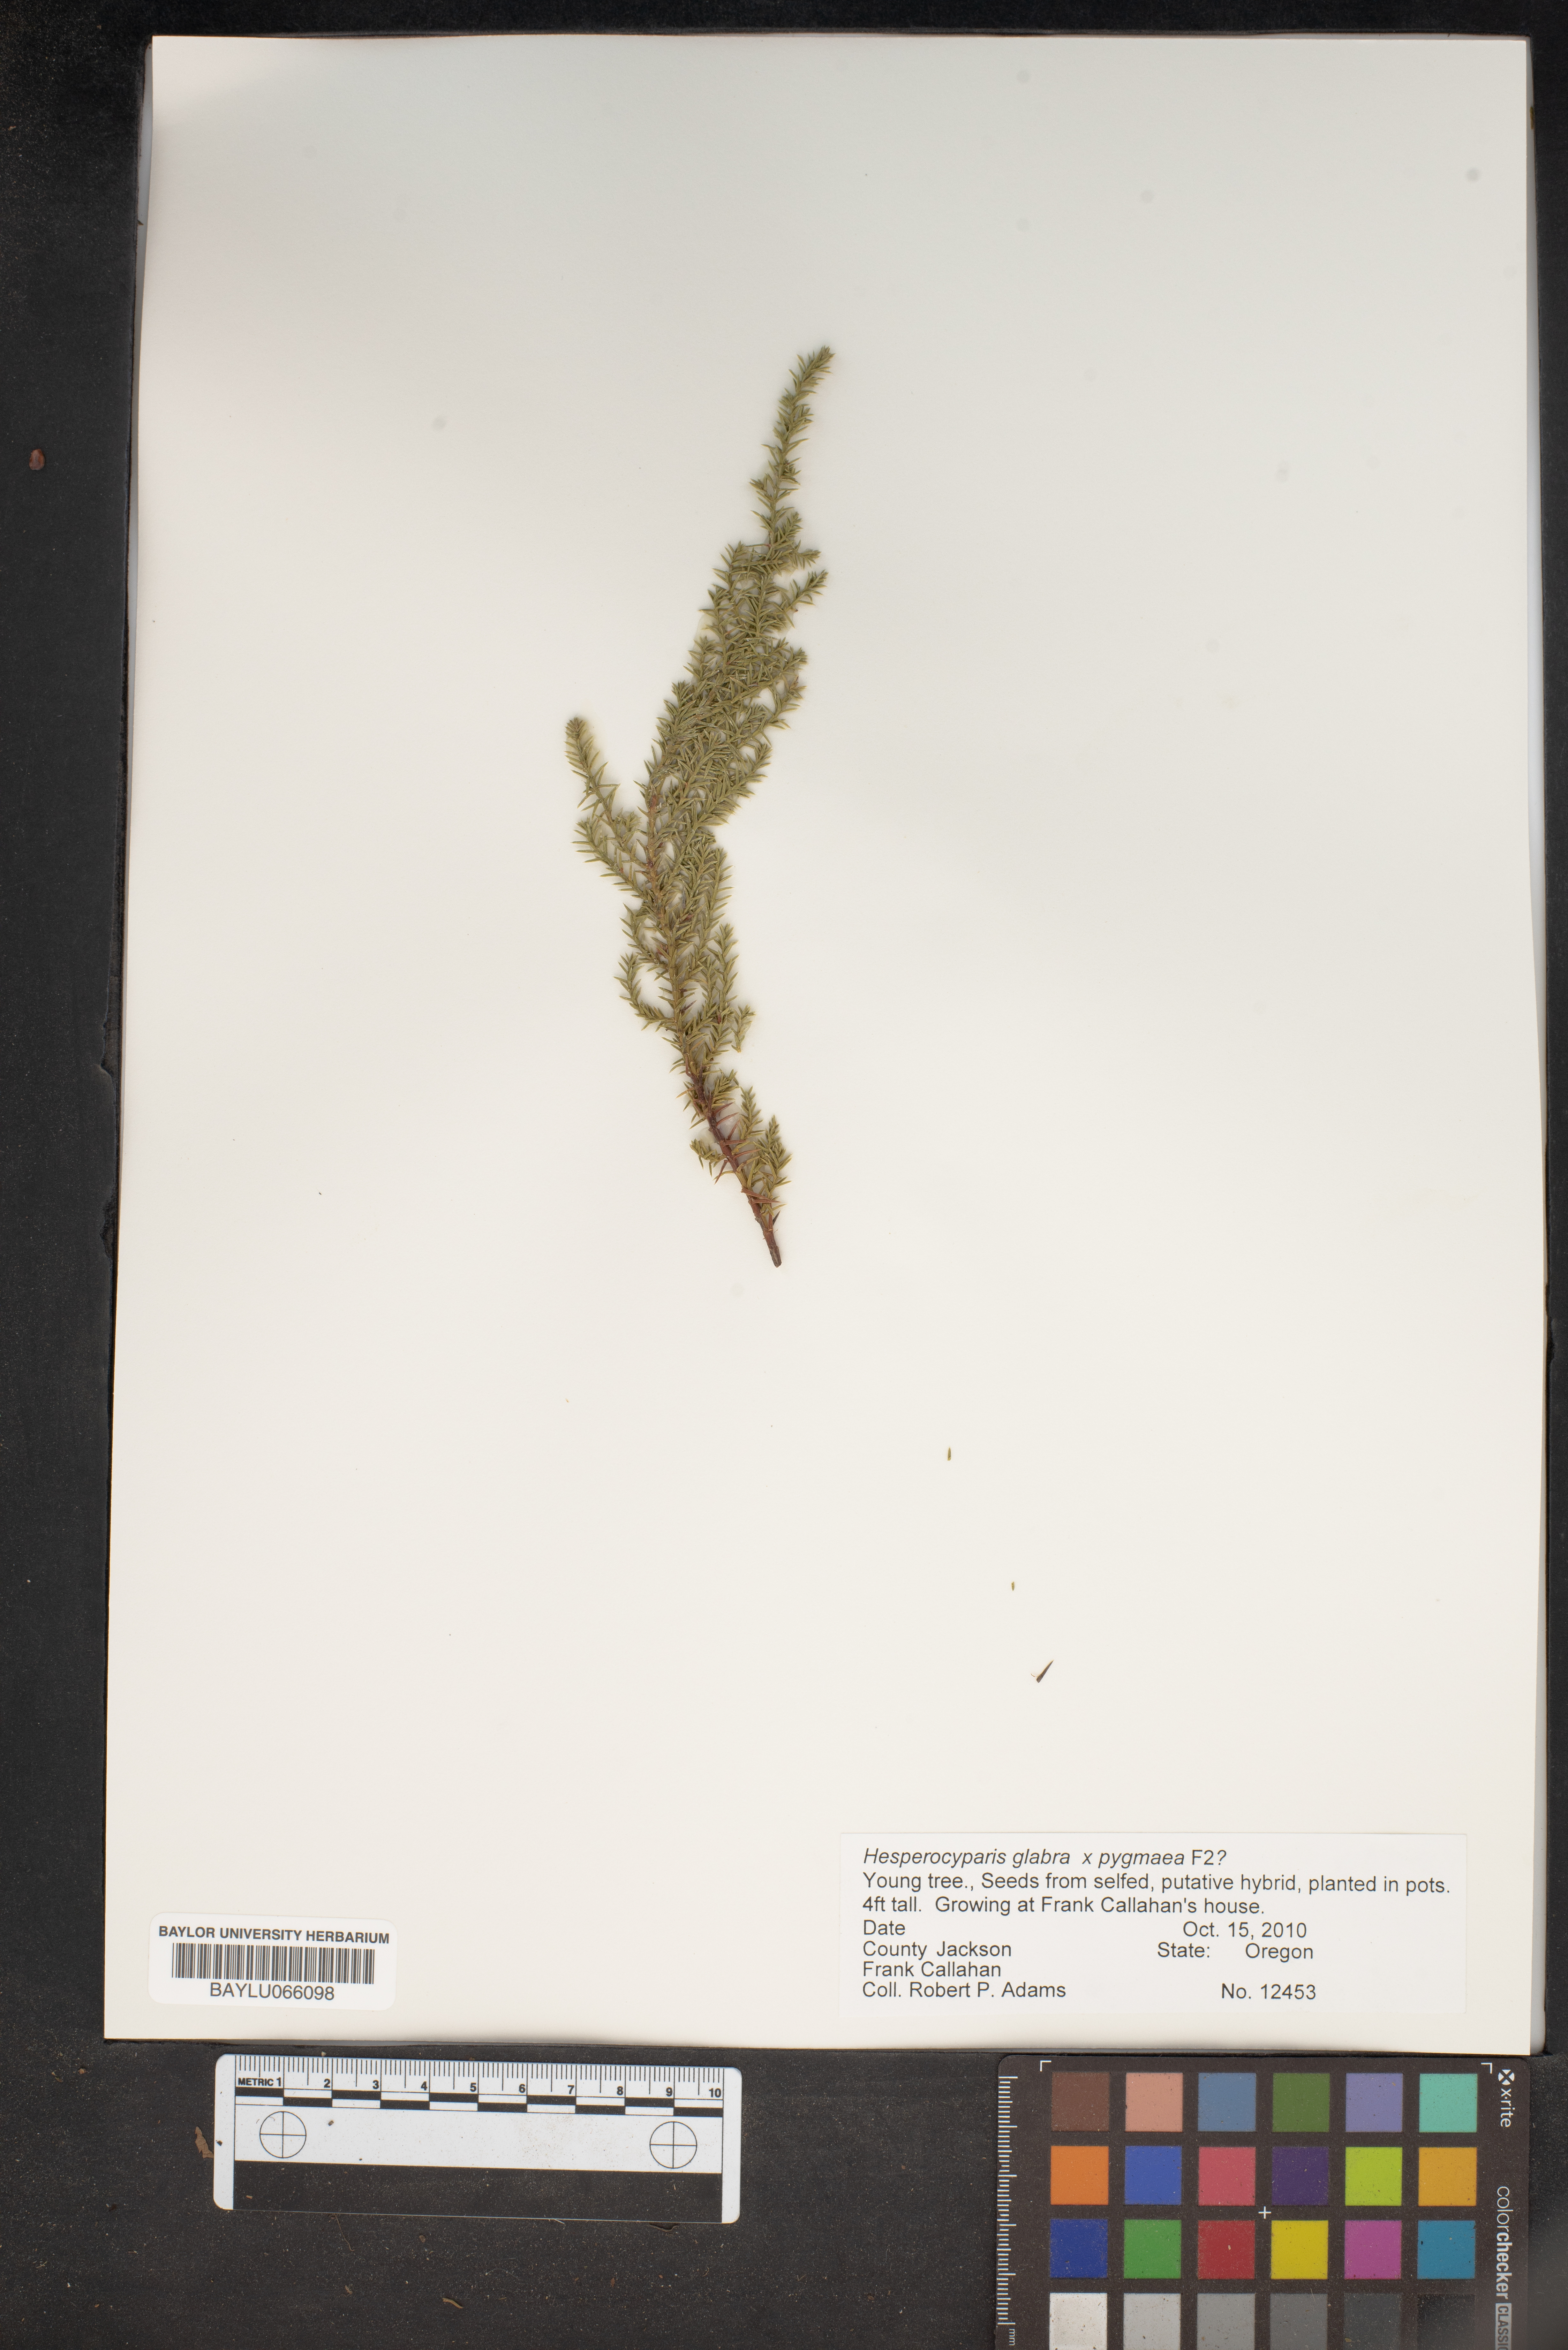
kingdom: Plantae
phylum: Tracheophyta
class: Pinopsida
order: Pinales
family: Cupressaceae
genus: Cupressus
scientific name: Cupressus goveniana
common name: Gowen cypress
